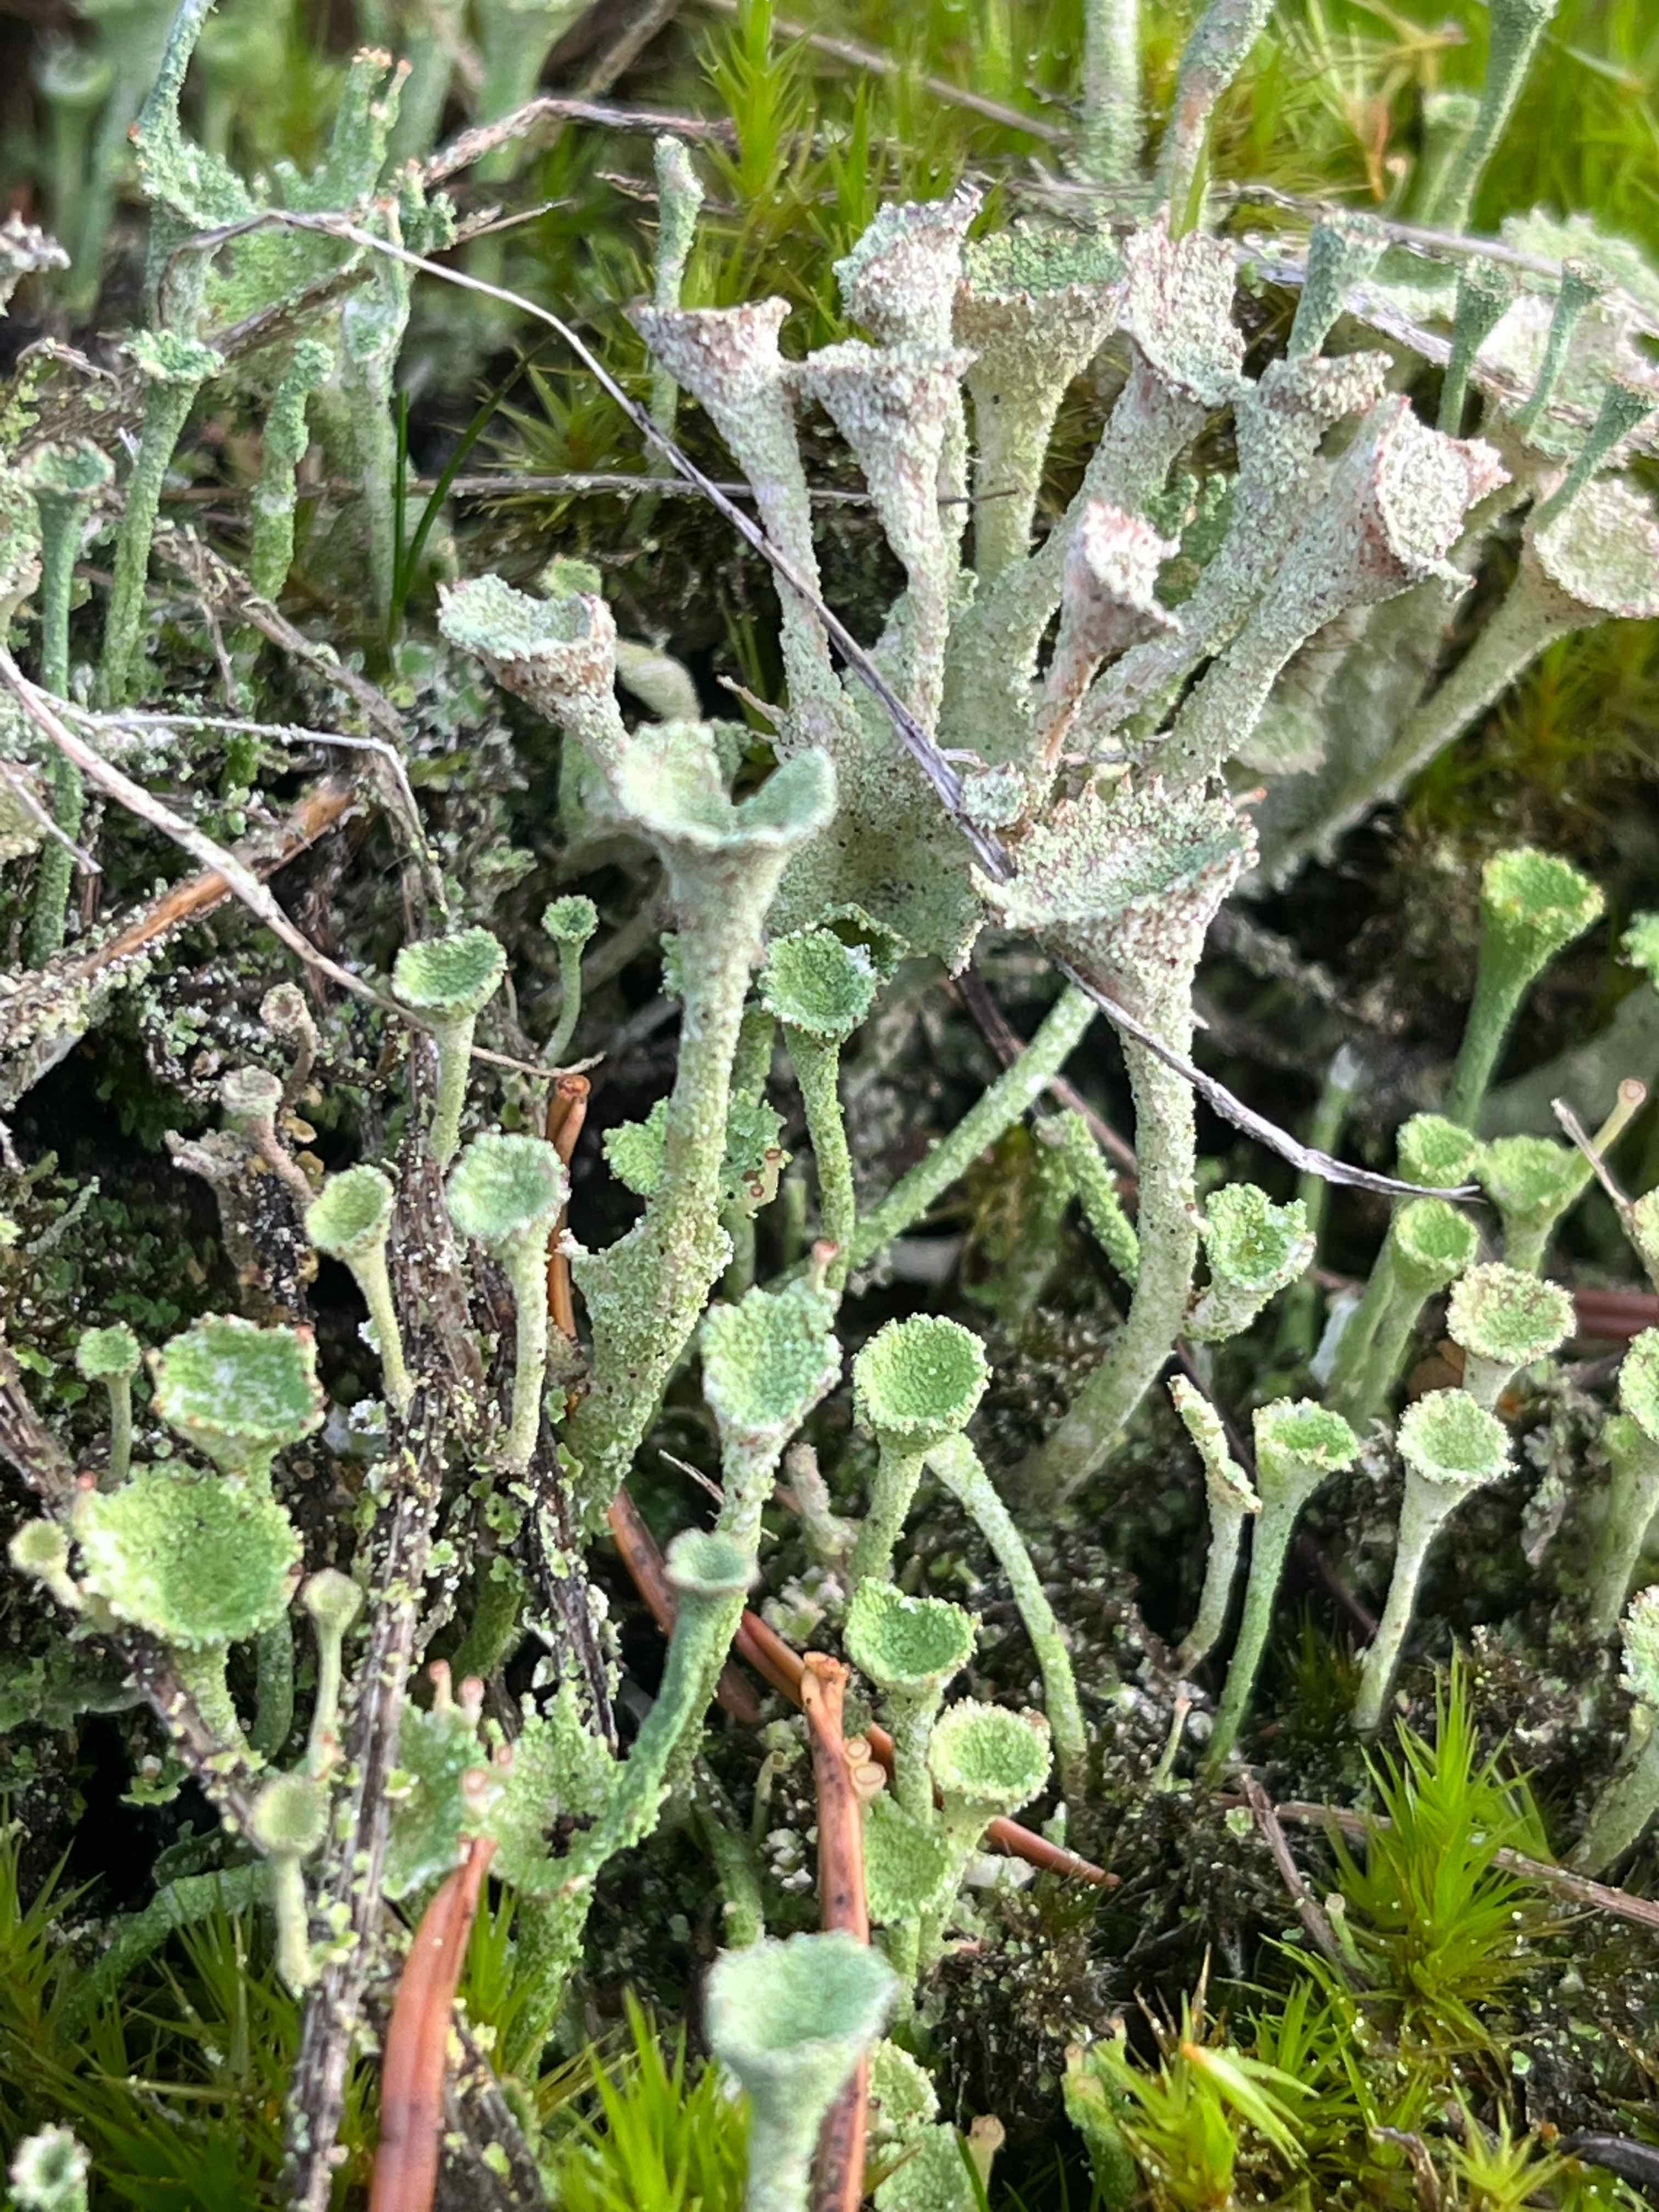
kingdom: Fungi
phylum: Ascomycota
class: Lecanoromycetes
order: Lecanorales
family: Cladoniaceae
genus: Cladonia
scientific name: Cladonia fimbriata
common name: bleggrøn bægerlav
